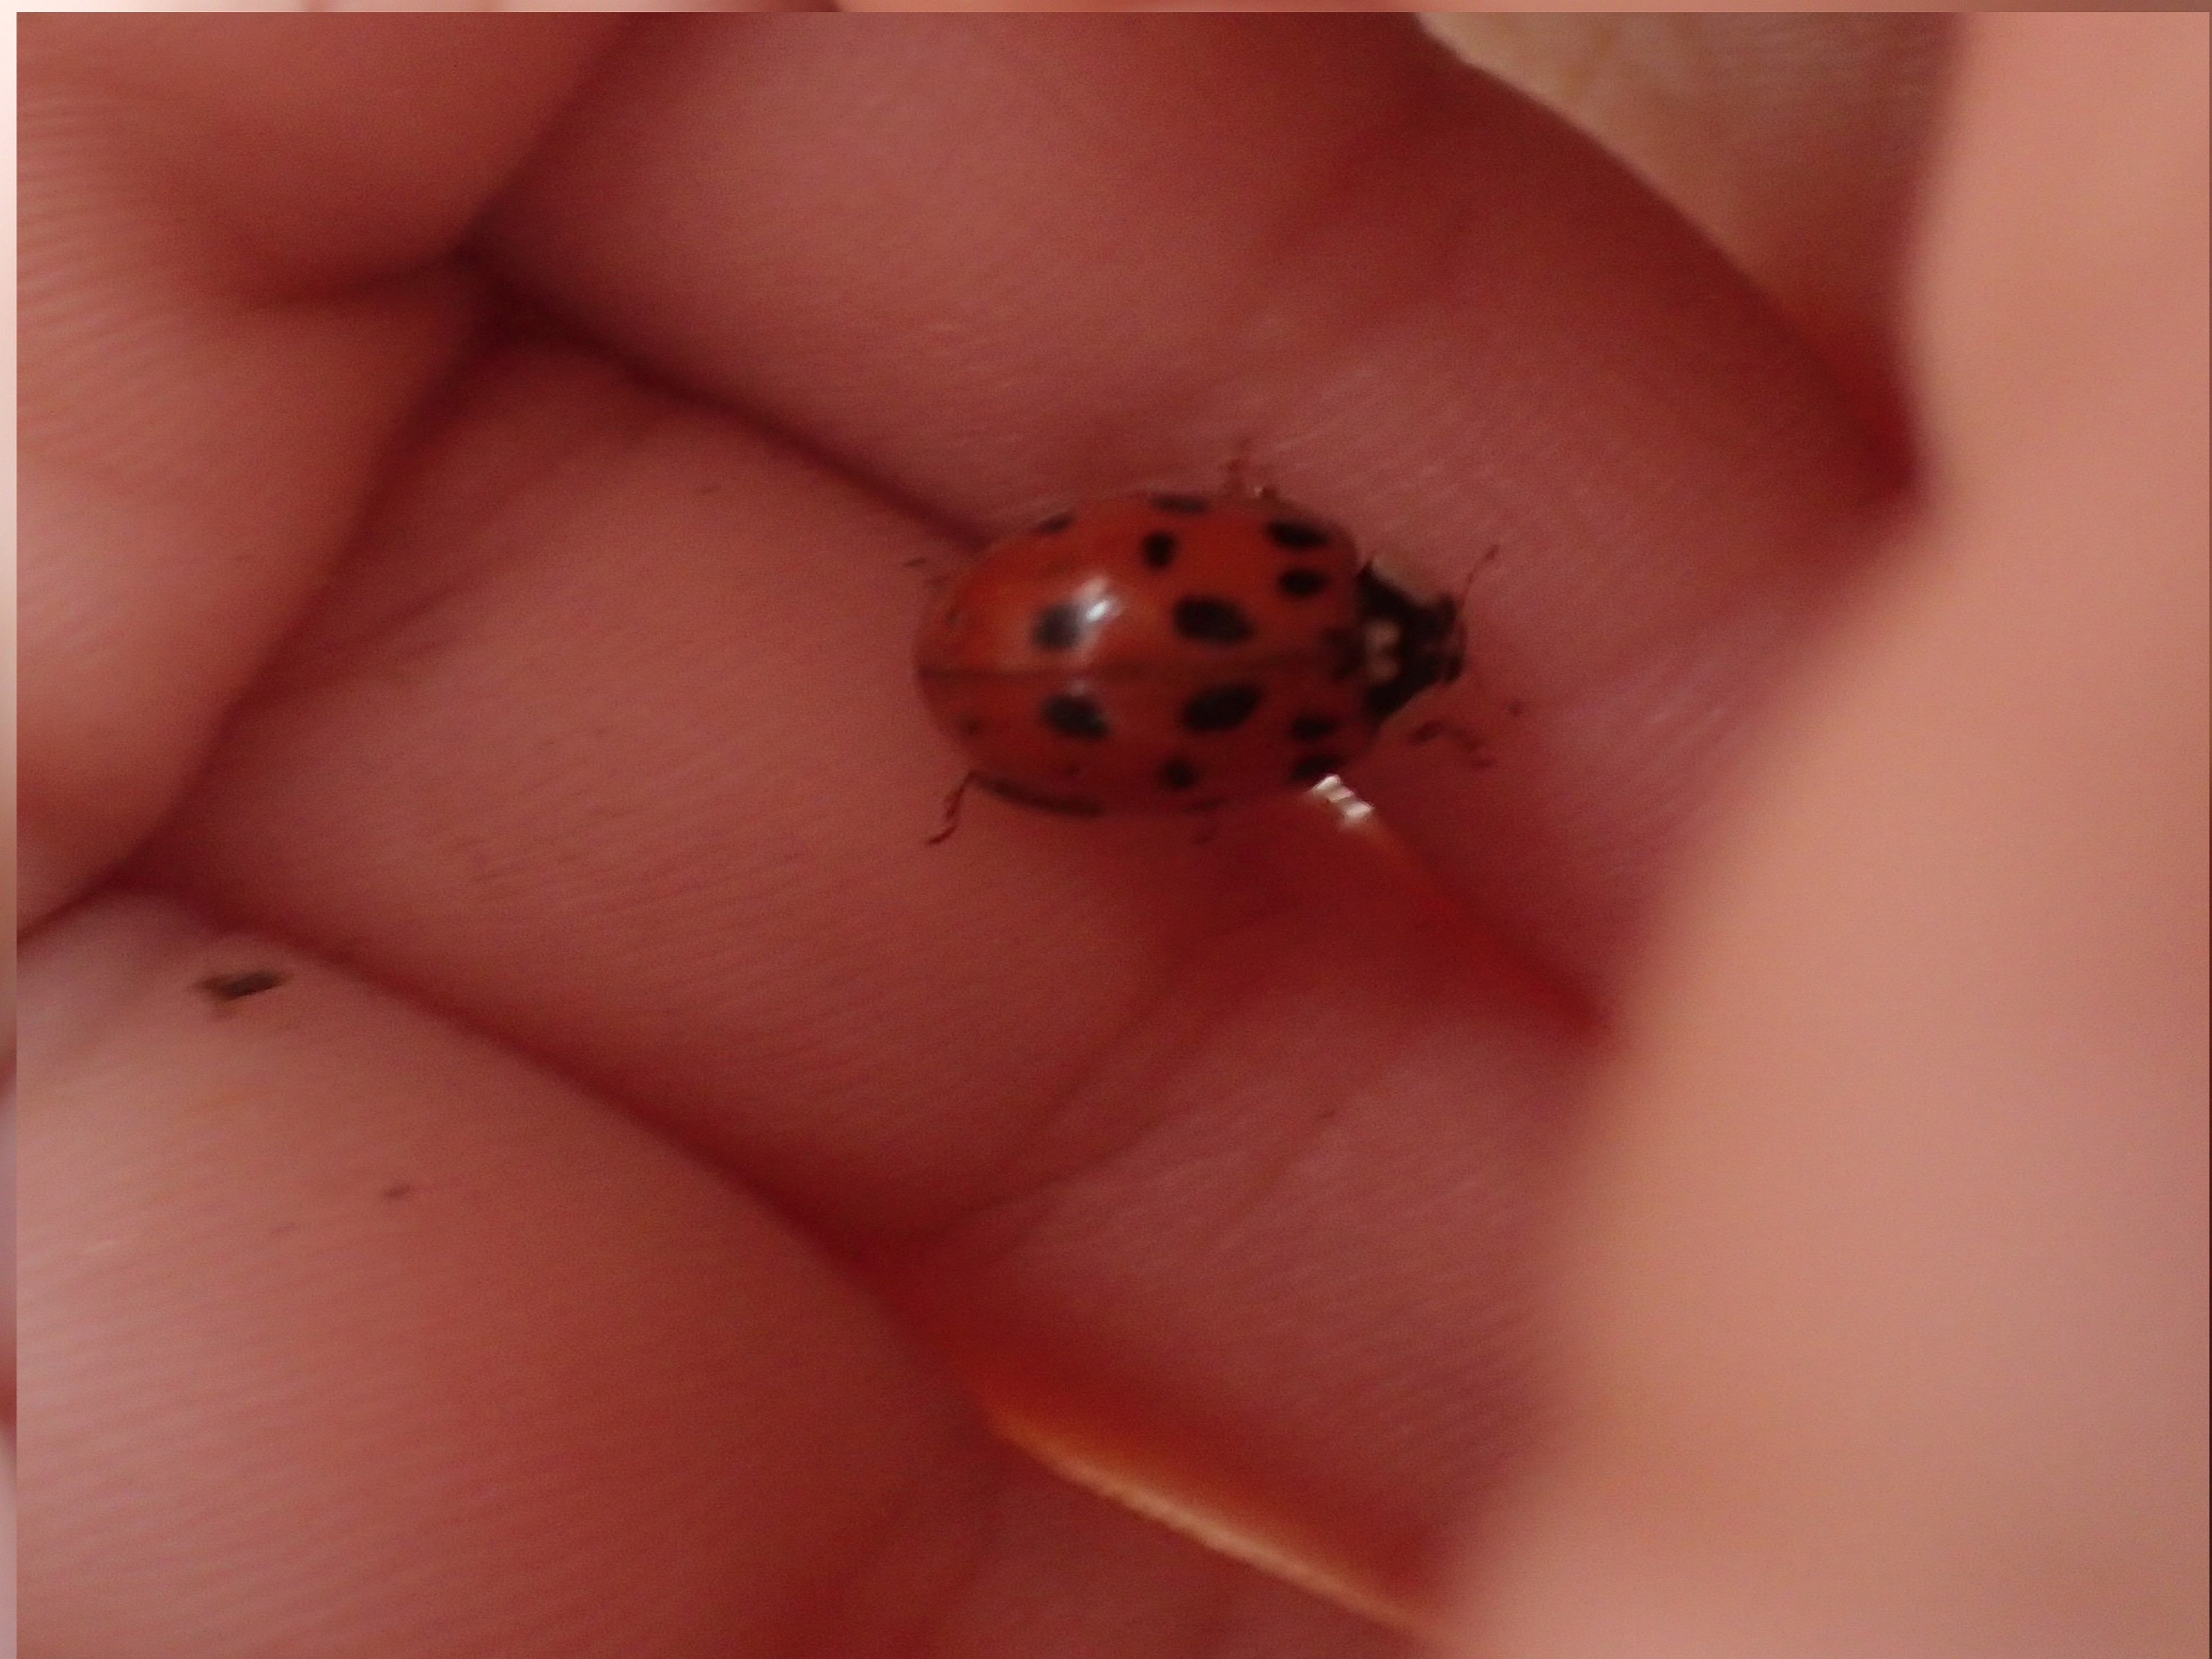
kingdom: Animalia
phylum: Arthropoda
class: Insecta
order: Coleoptera
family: Coccinellidae
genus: Harmonia
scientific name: Harmonia axyridis
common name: Harlekinmariehøne
